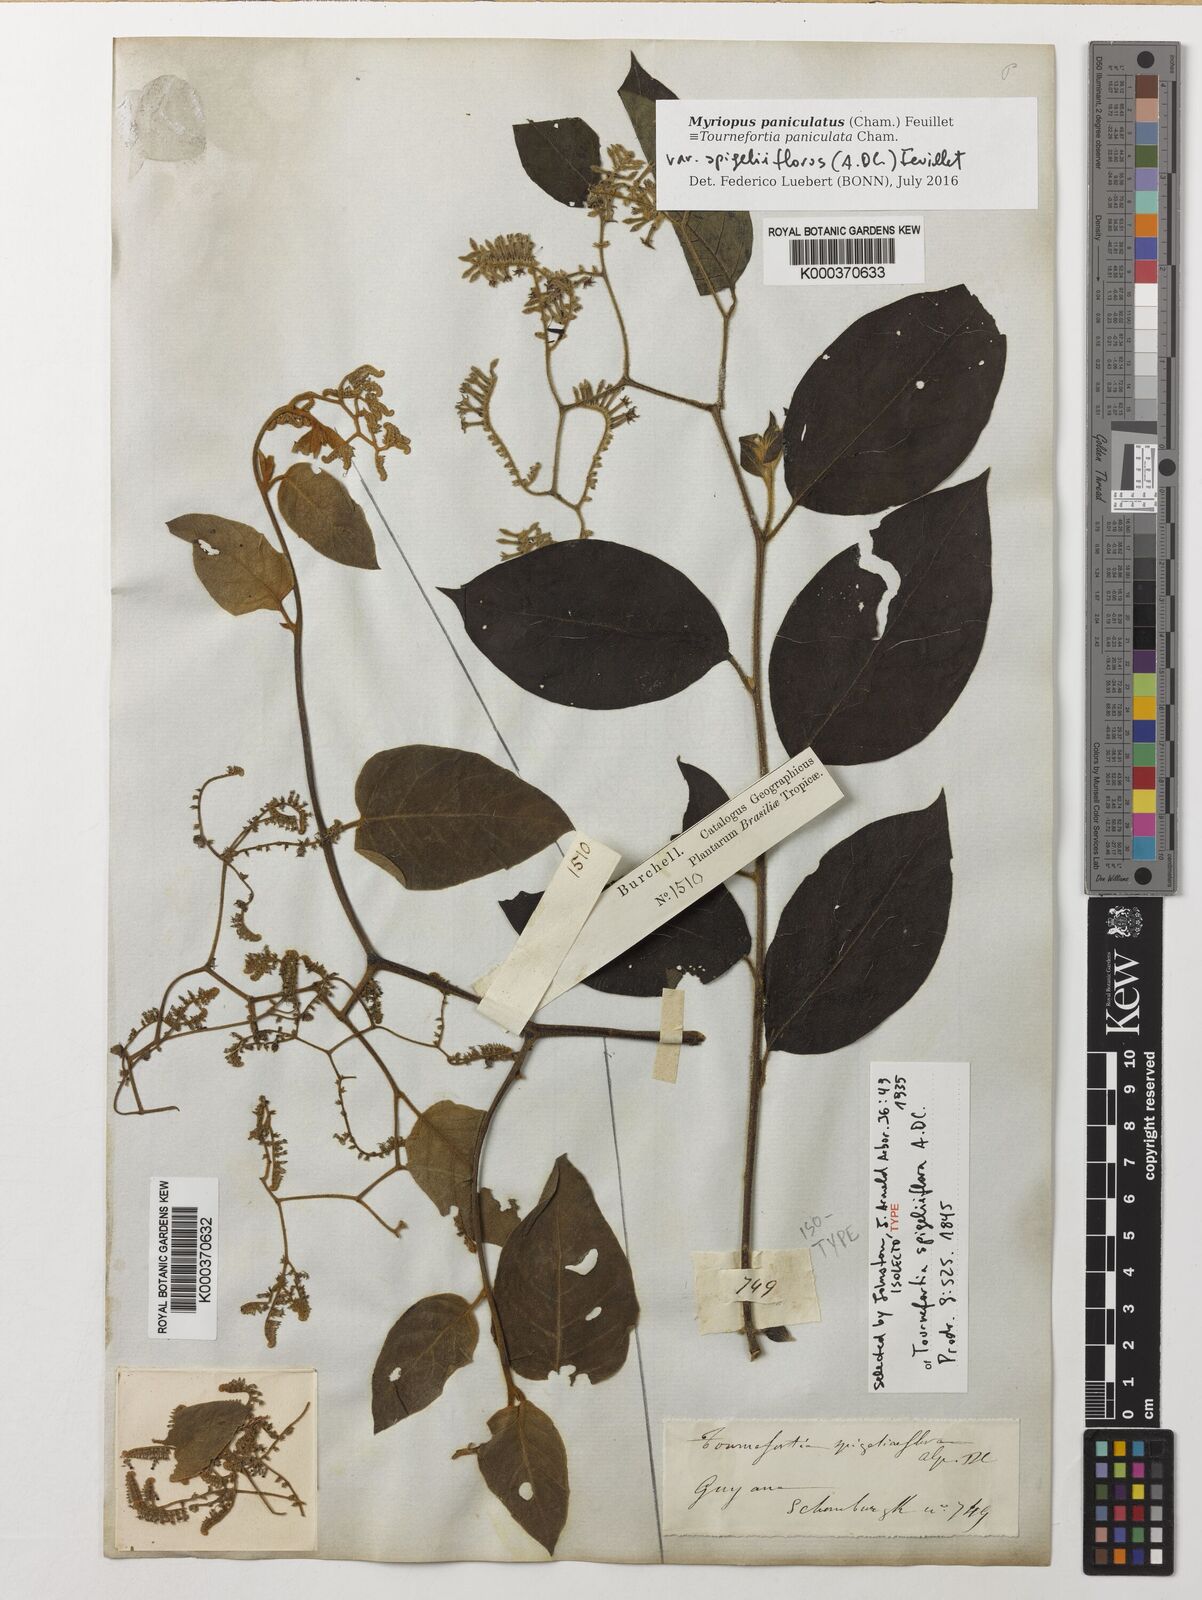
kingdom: Plantae
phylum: Tracheophyta
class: Magnoliopsida
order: Boraginales
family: Heliotropiaceae
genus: Myriopus
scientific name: Myriopus paniculatus
